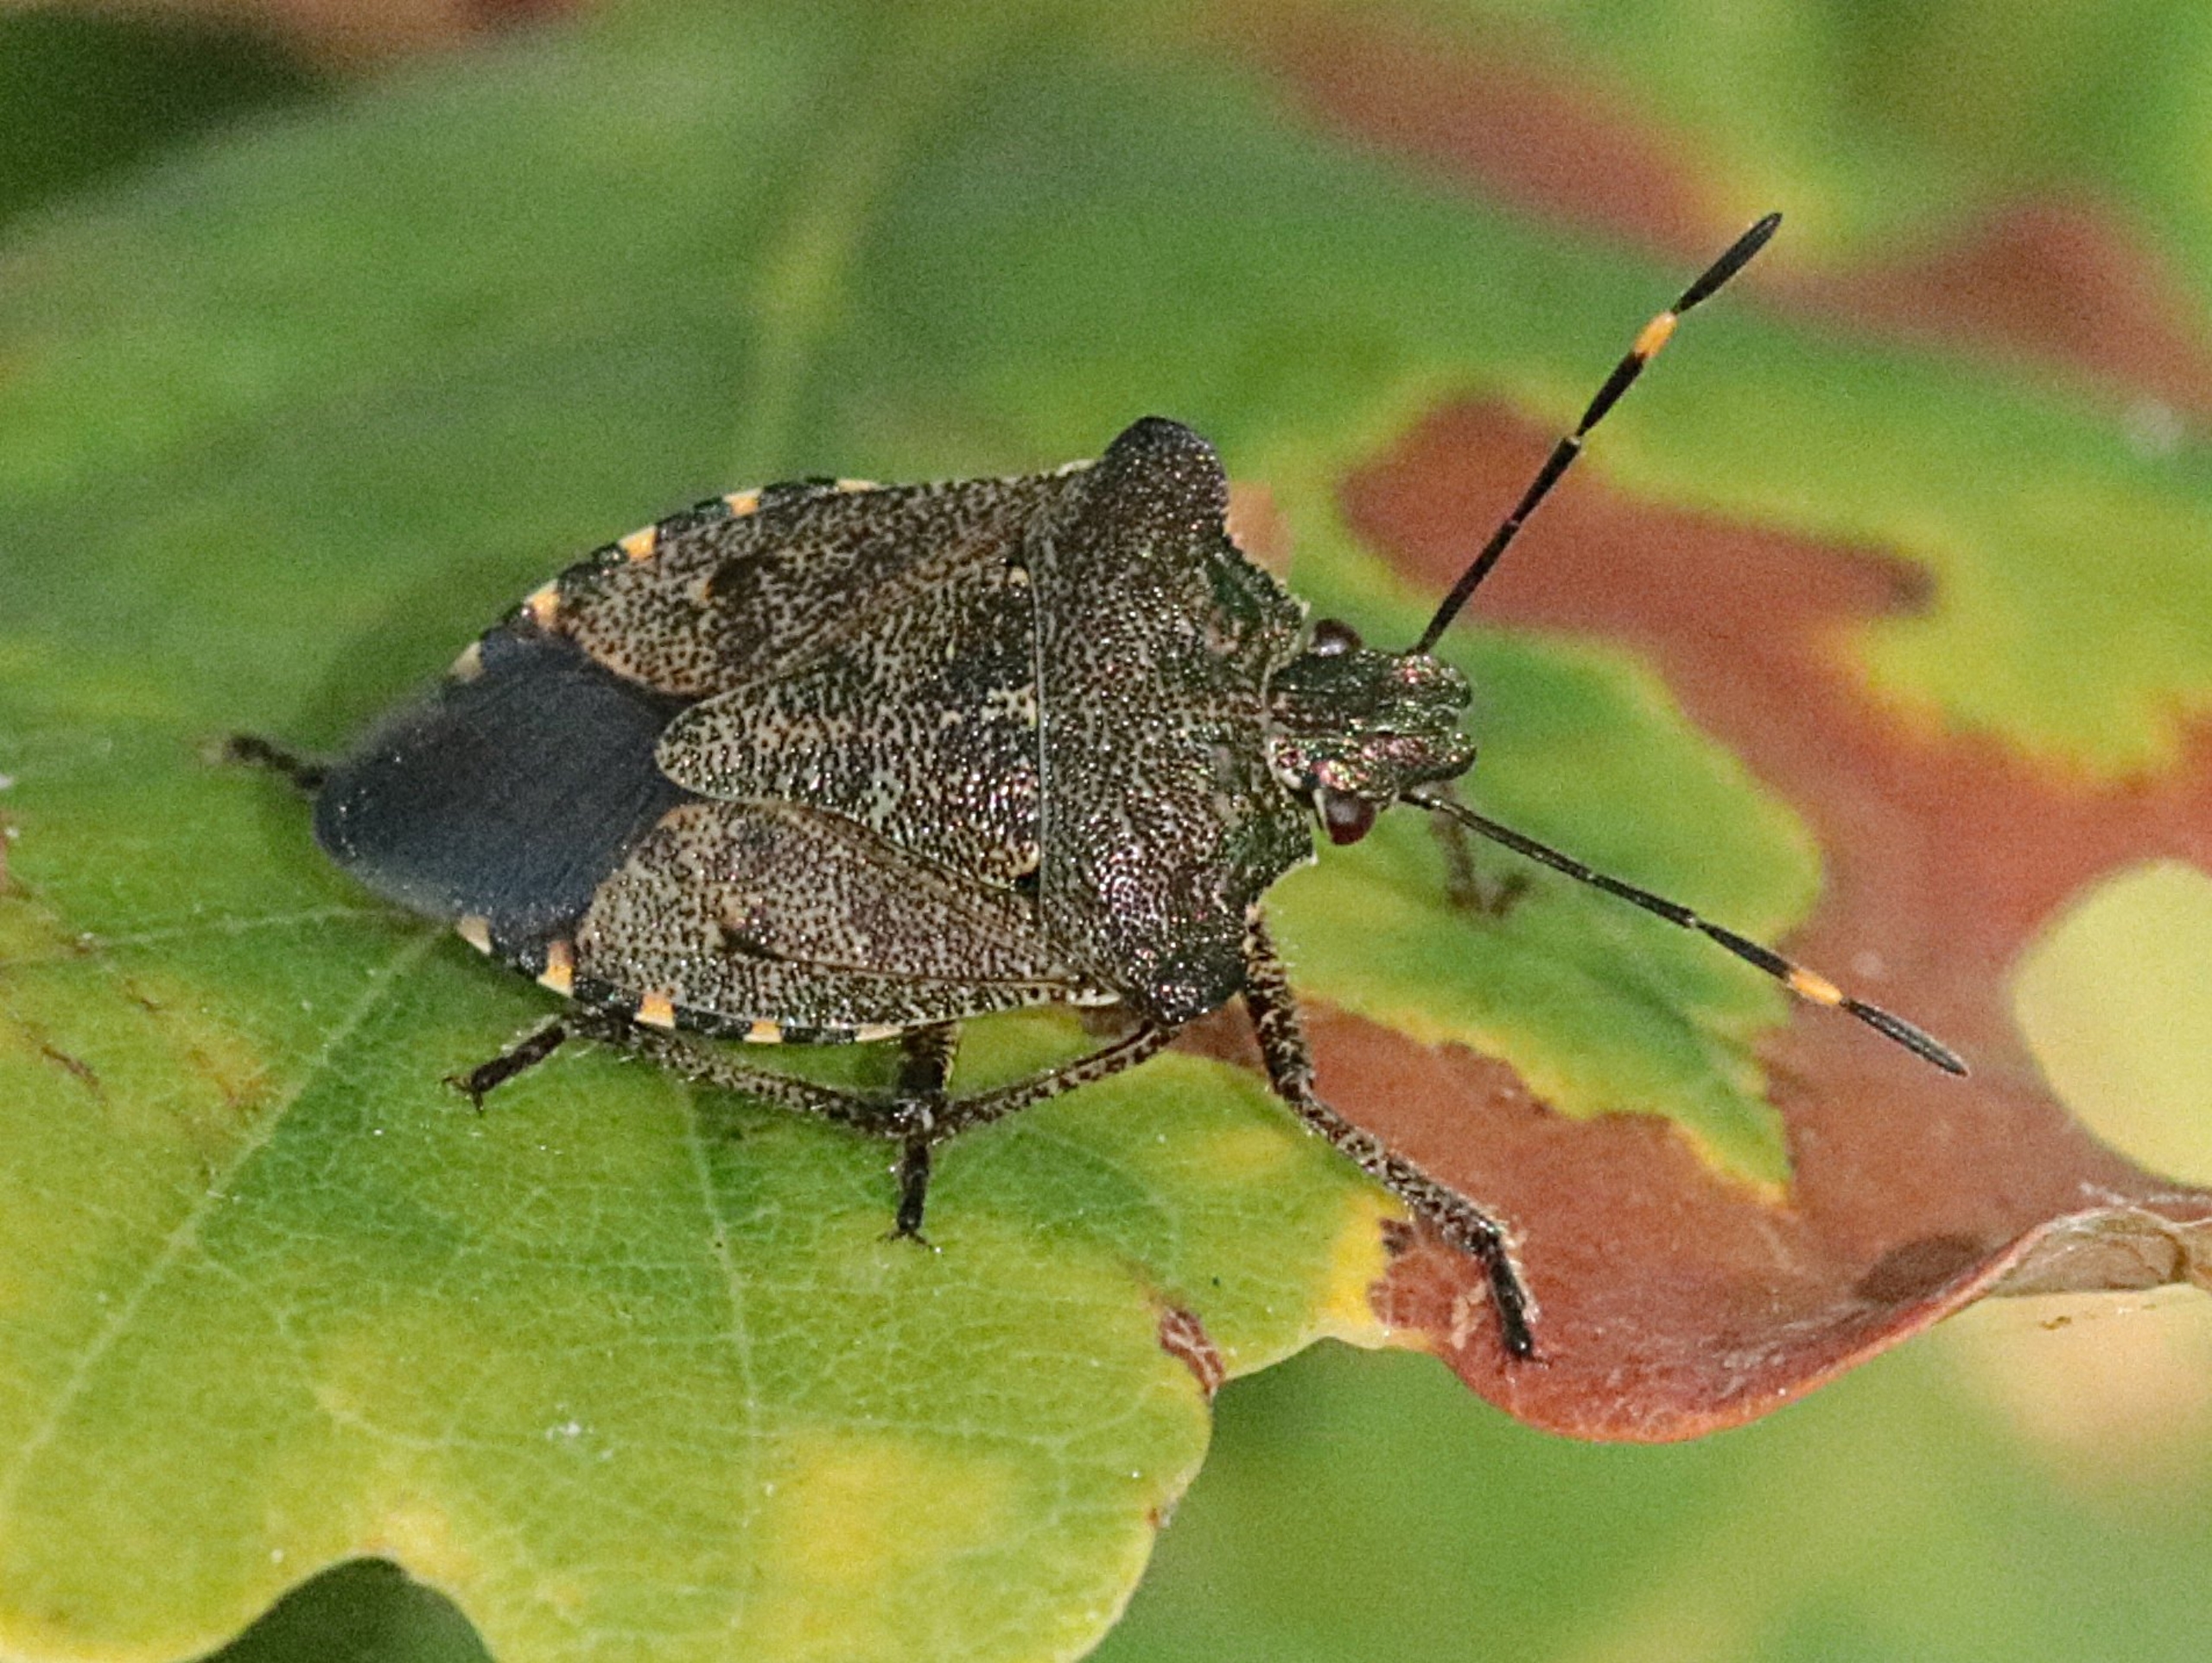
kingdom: Animalia
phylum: Arthropoda
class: Insecta
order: Hemiptera
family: Pentatomidae
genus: Troilus
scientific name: Troilus luridus
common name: Skovbredtæge
